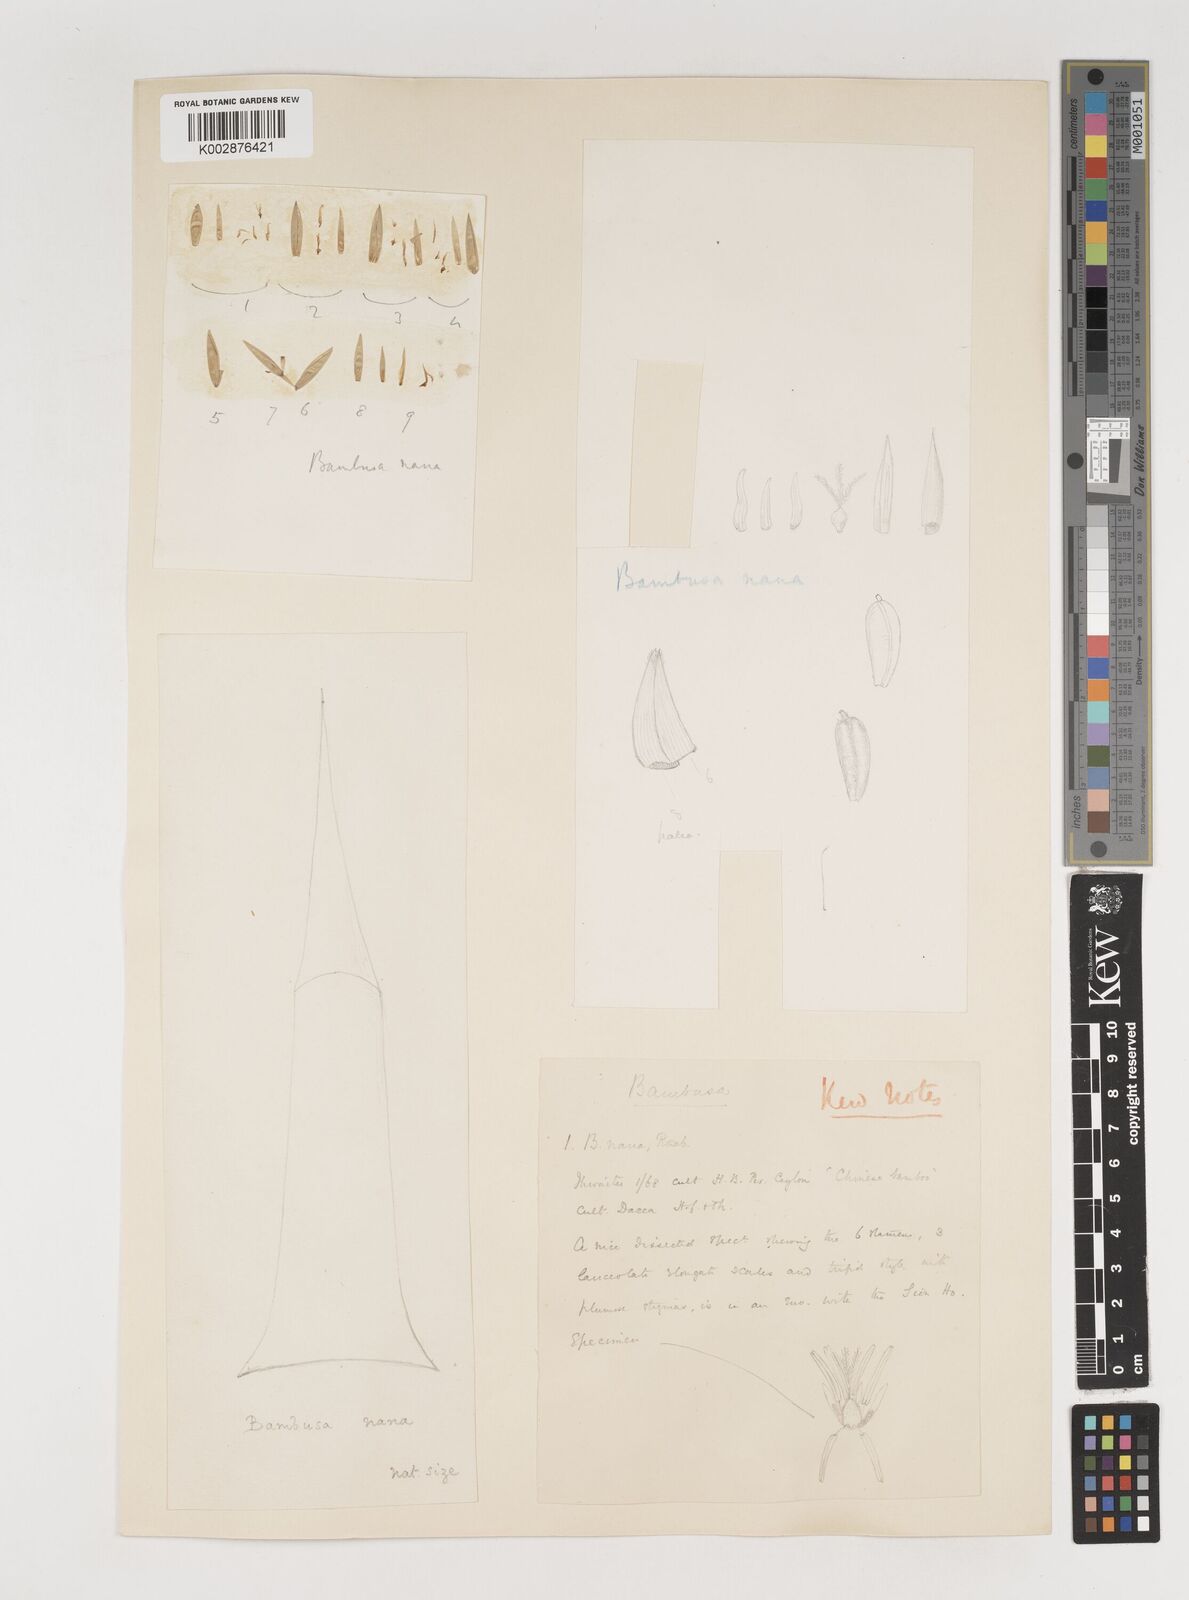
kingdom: Plantae
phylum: Tracheophyta
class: Liliopsida
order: Poales
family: Poaceae
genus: Bambusa
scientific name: Bambusa multiplex
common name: Hedge bamboo
